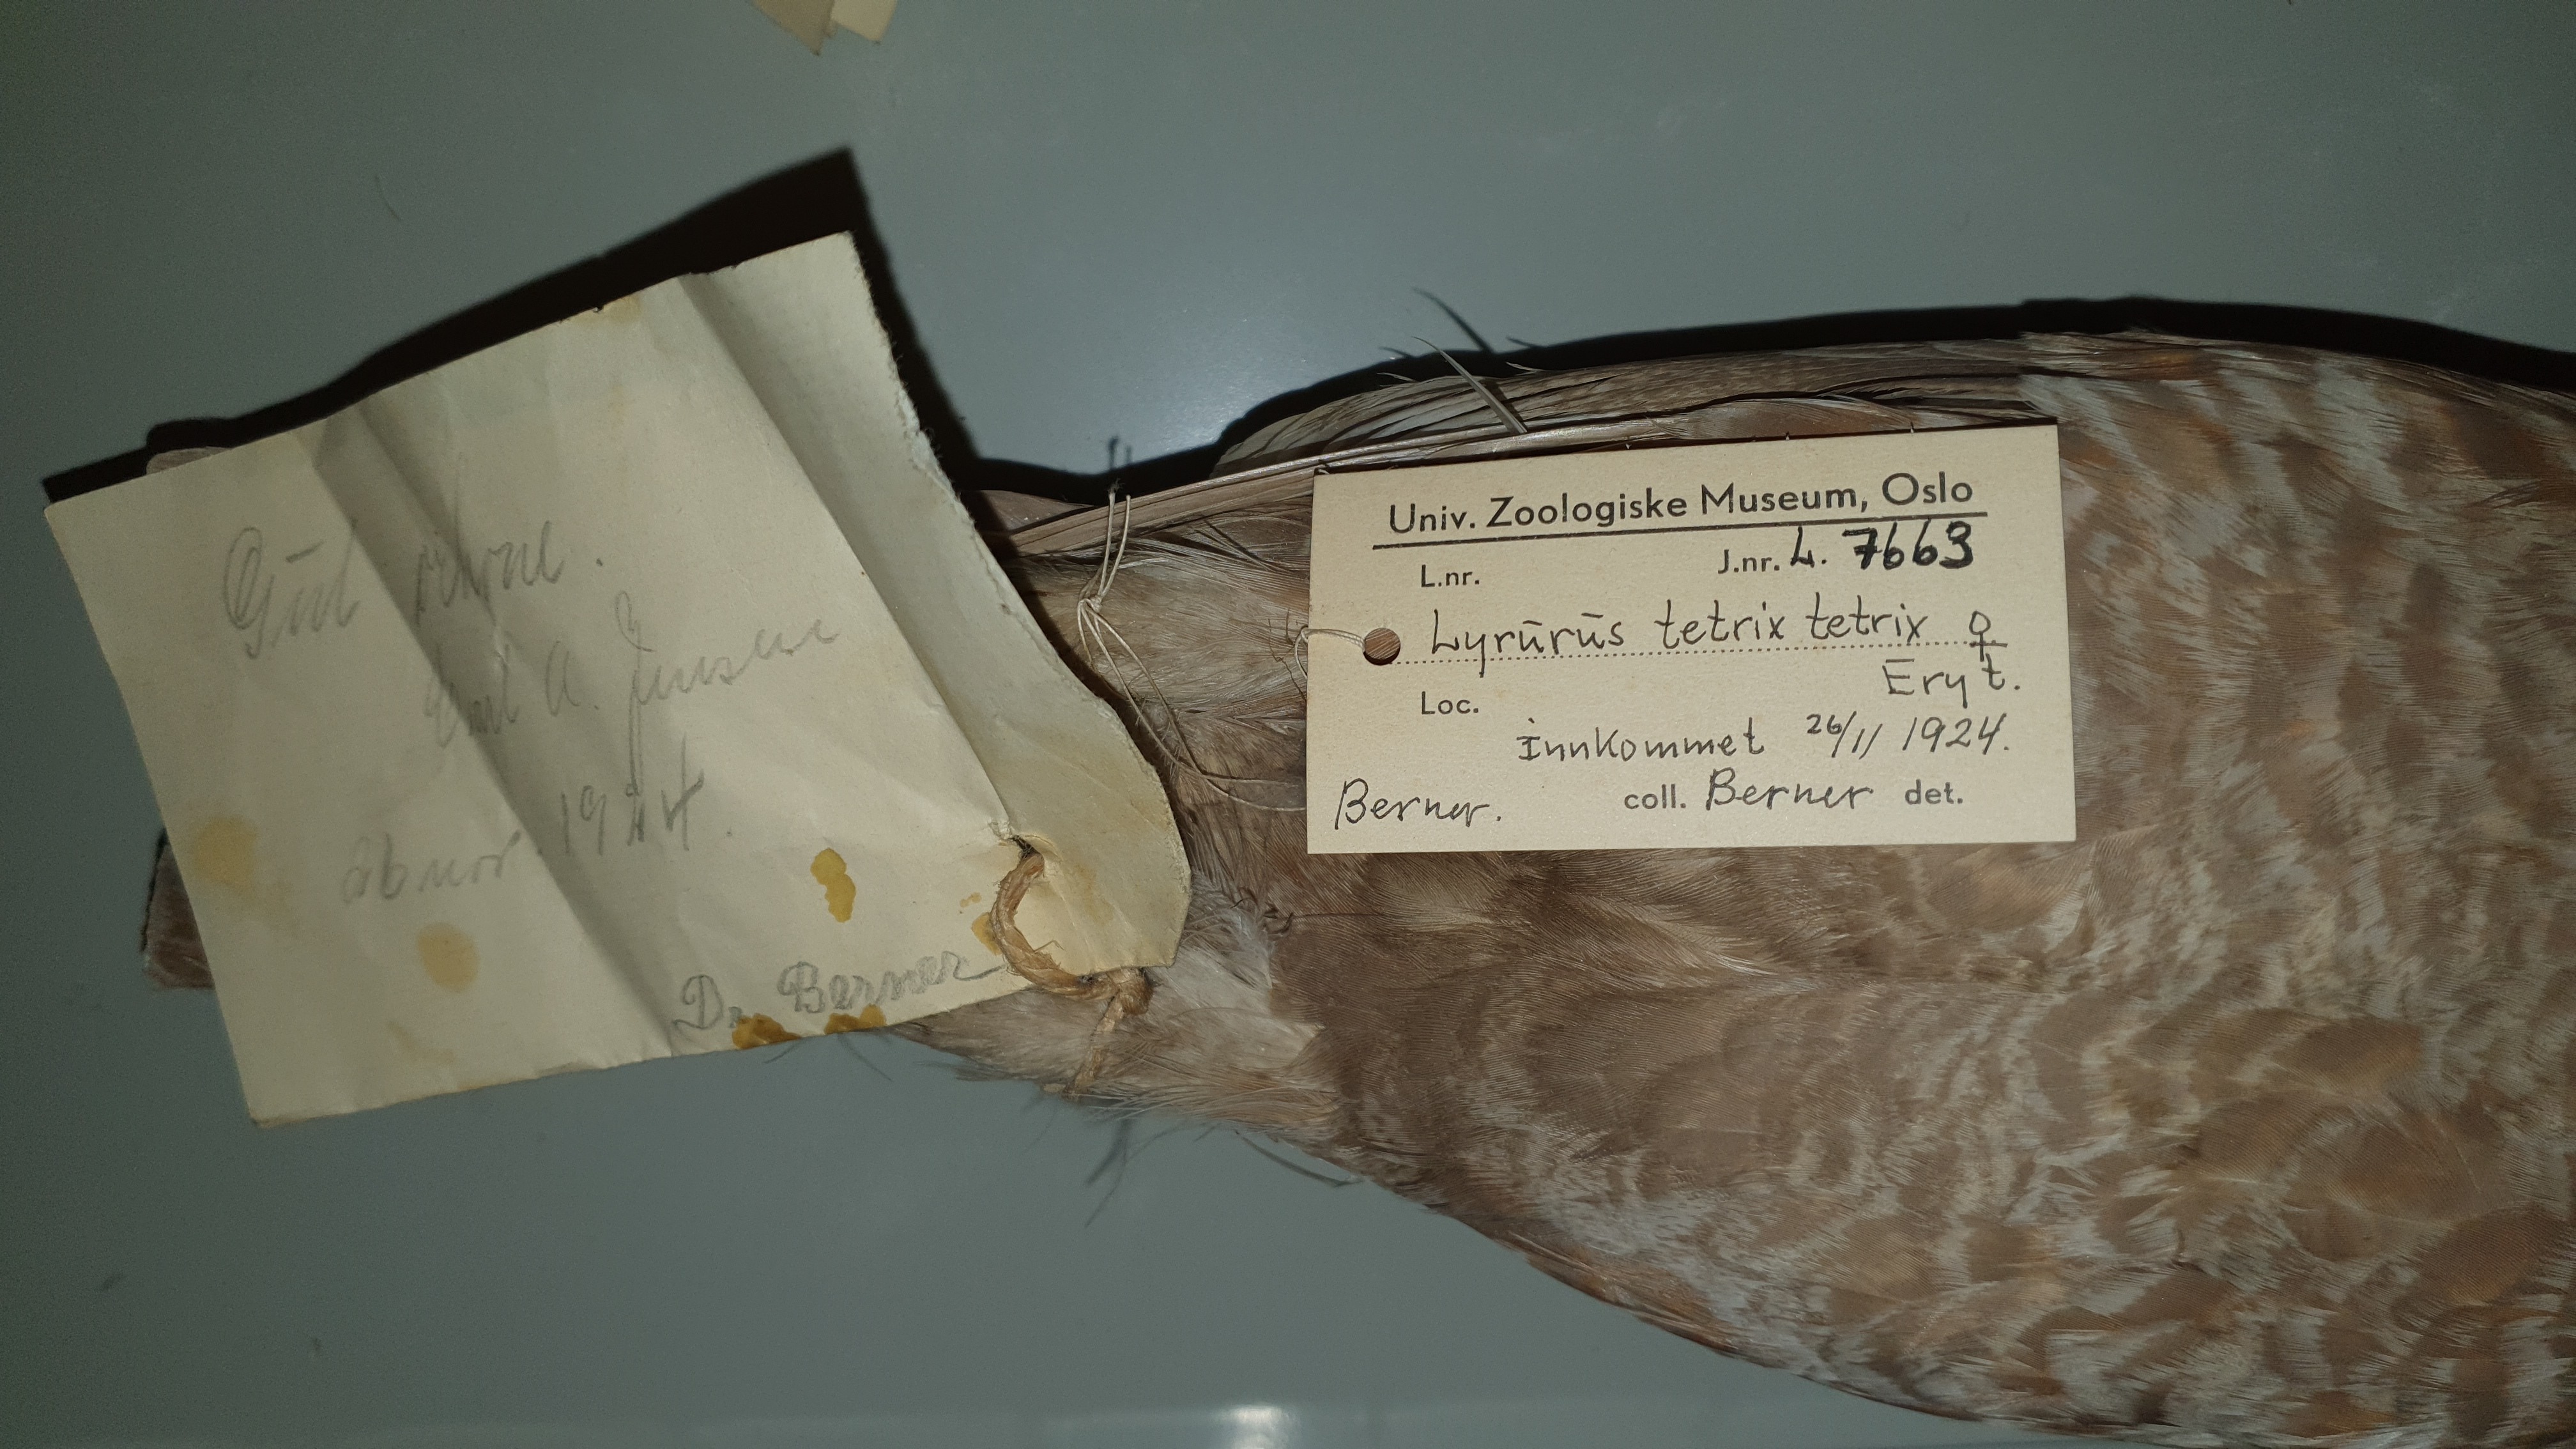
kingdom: Animalia
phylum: Chordata
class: Aves
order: Galliformes
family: Phasianidae
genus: Lyrurus
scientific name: Lyrurus tetrix
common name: Black grouse
